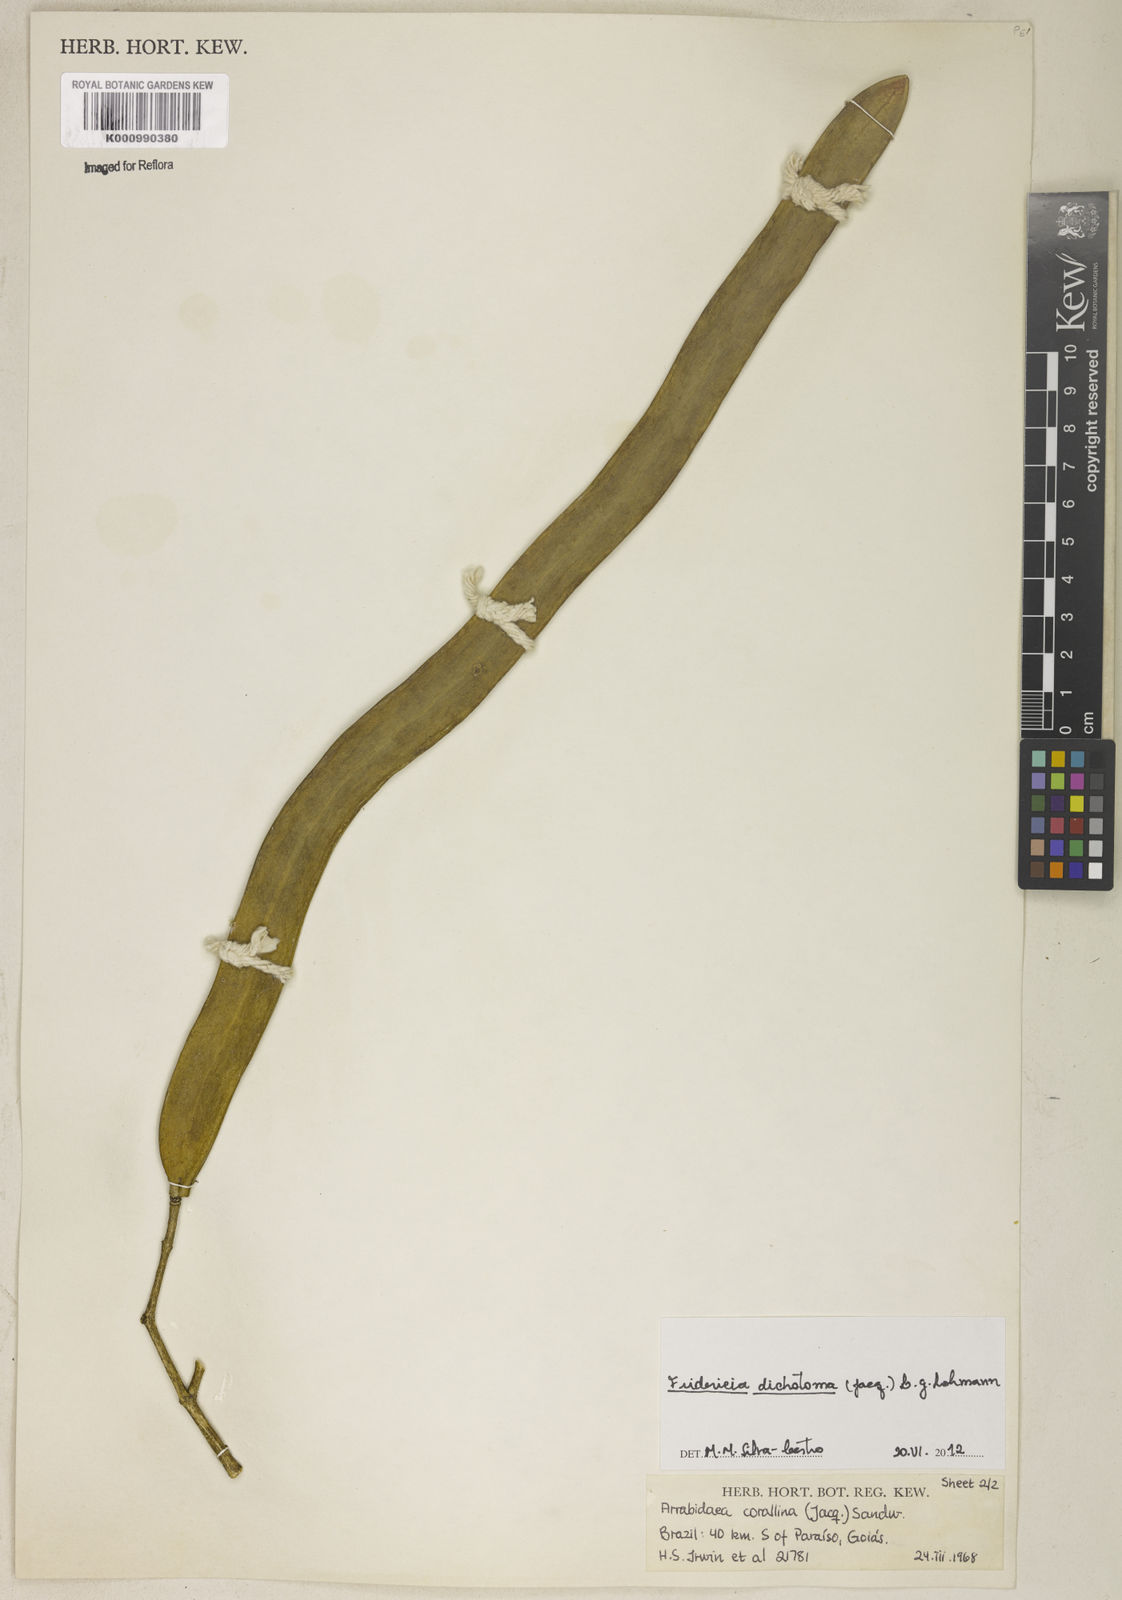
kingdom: Plantae
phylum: Tracheophyta
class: Magnoliopsida
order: Lamiales
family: Bignoniaceae
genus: Tanaecium
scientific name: Tanaecium dichotomum
